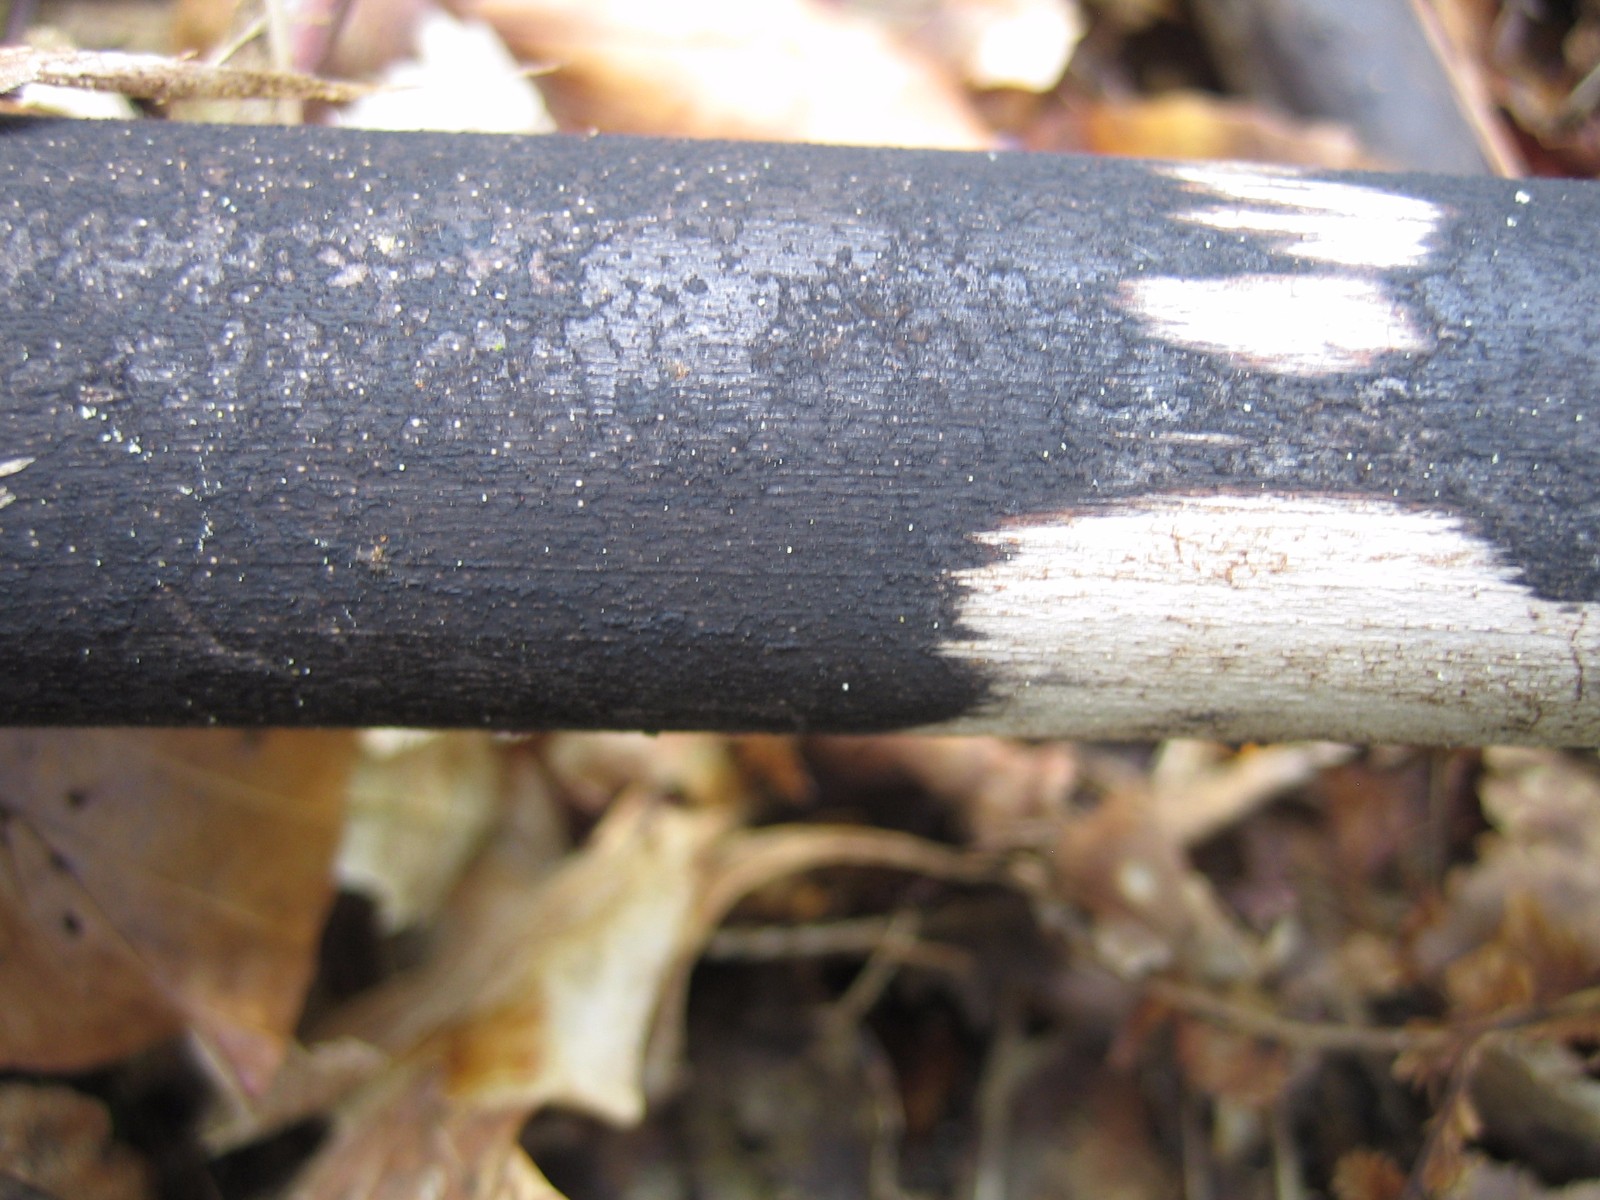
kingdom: Fungi
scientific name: Fungi
